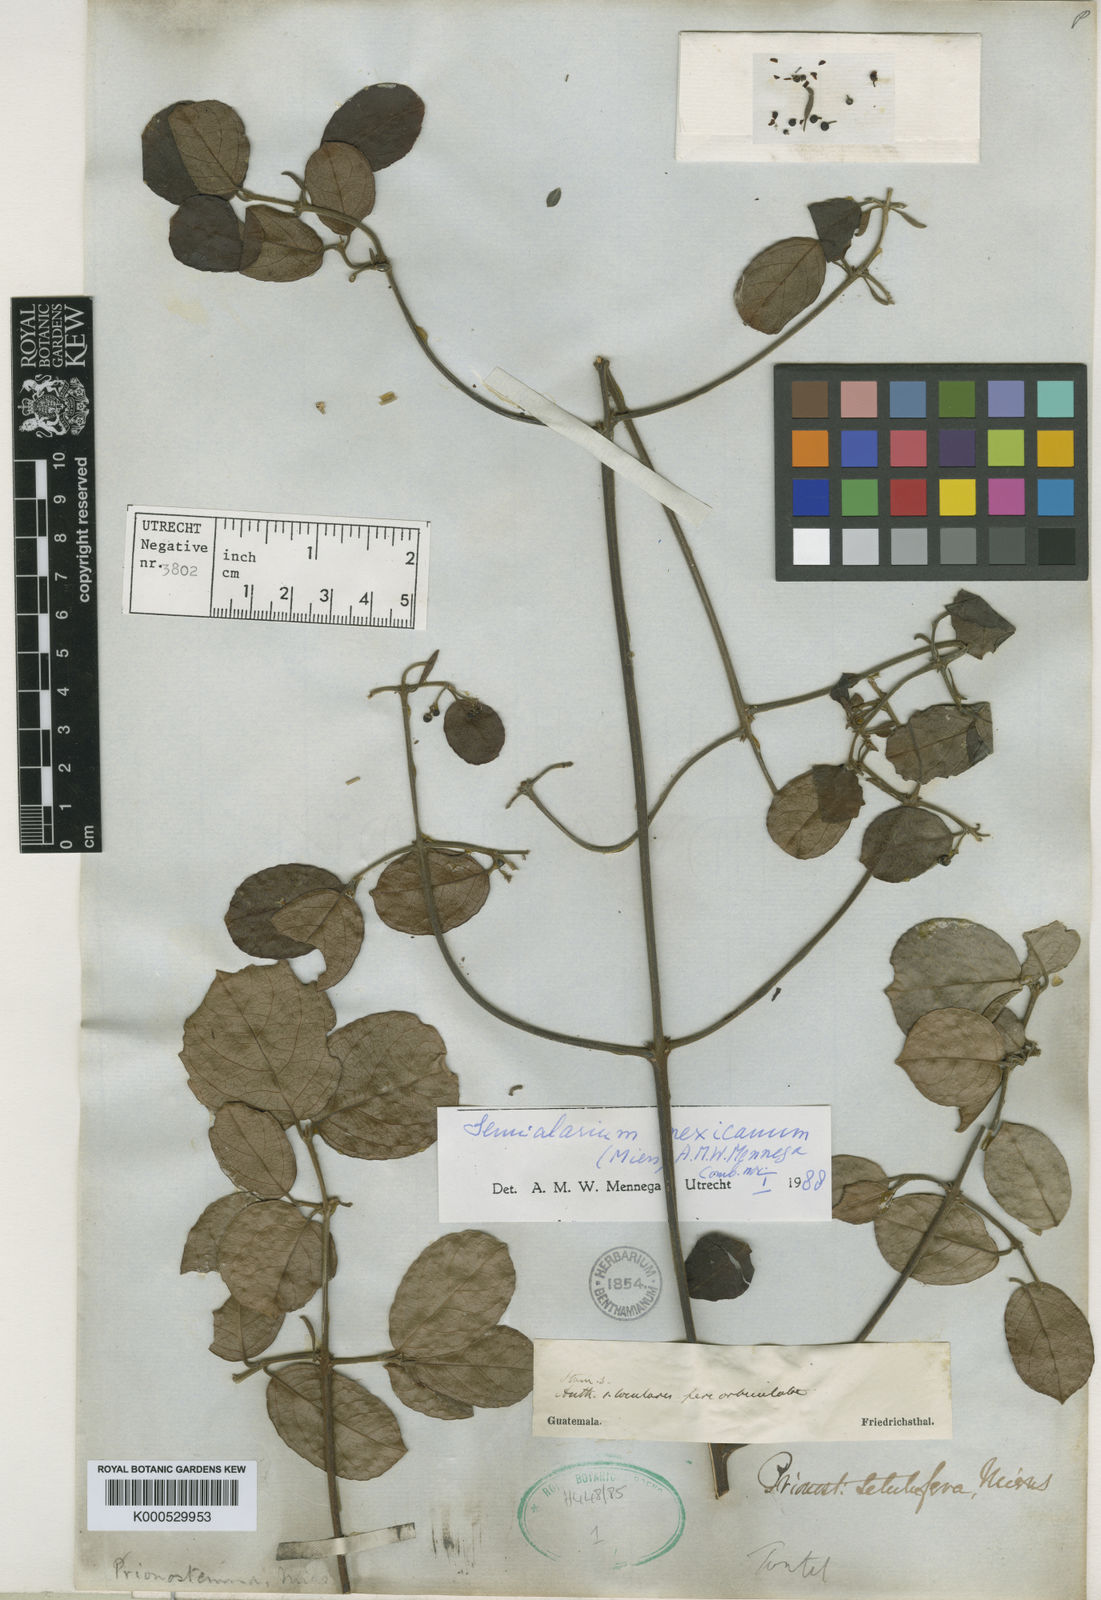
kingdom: Plantae
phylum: Tracheophyta
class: Magnoliopsida
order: Celastrales
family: Celastraceae
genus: Semialarium
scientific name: Semialarium mexicanum
